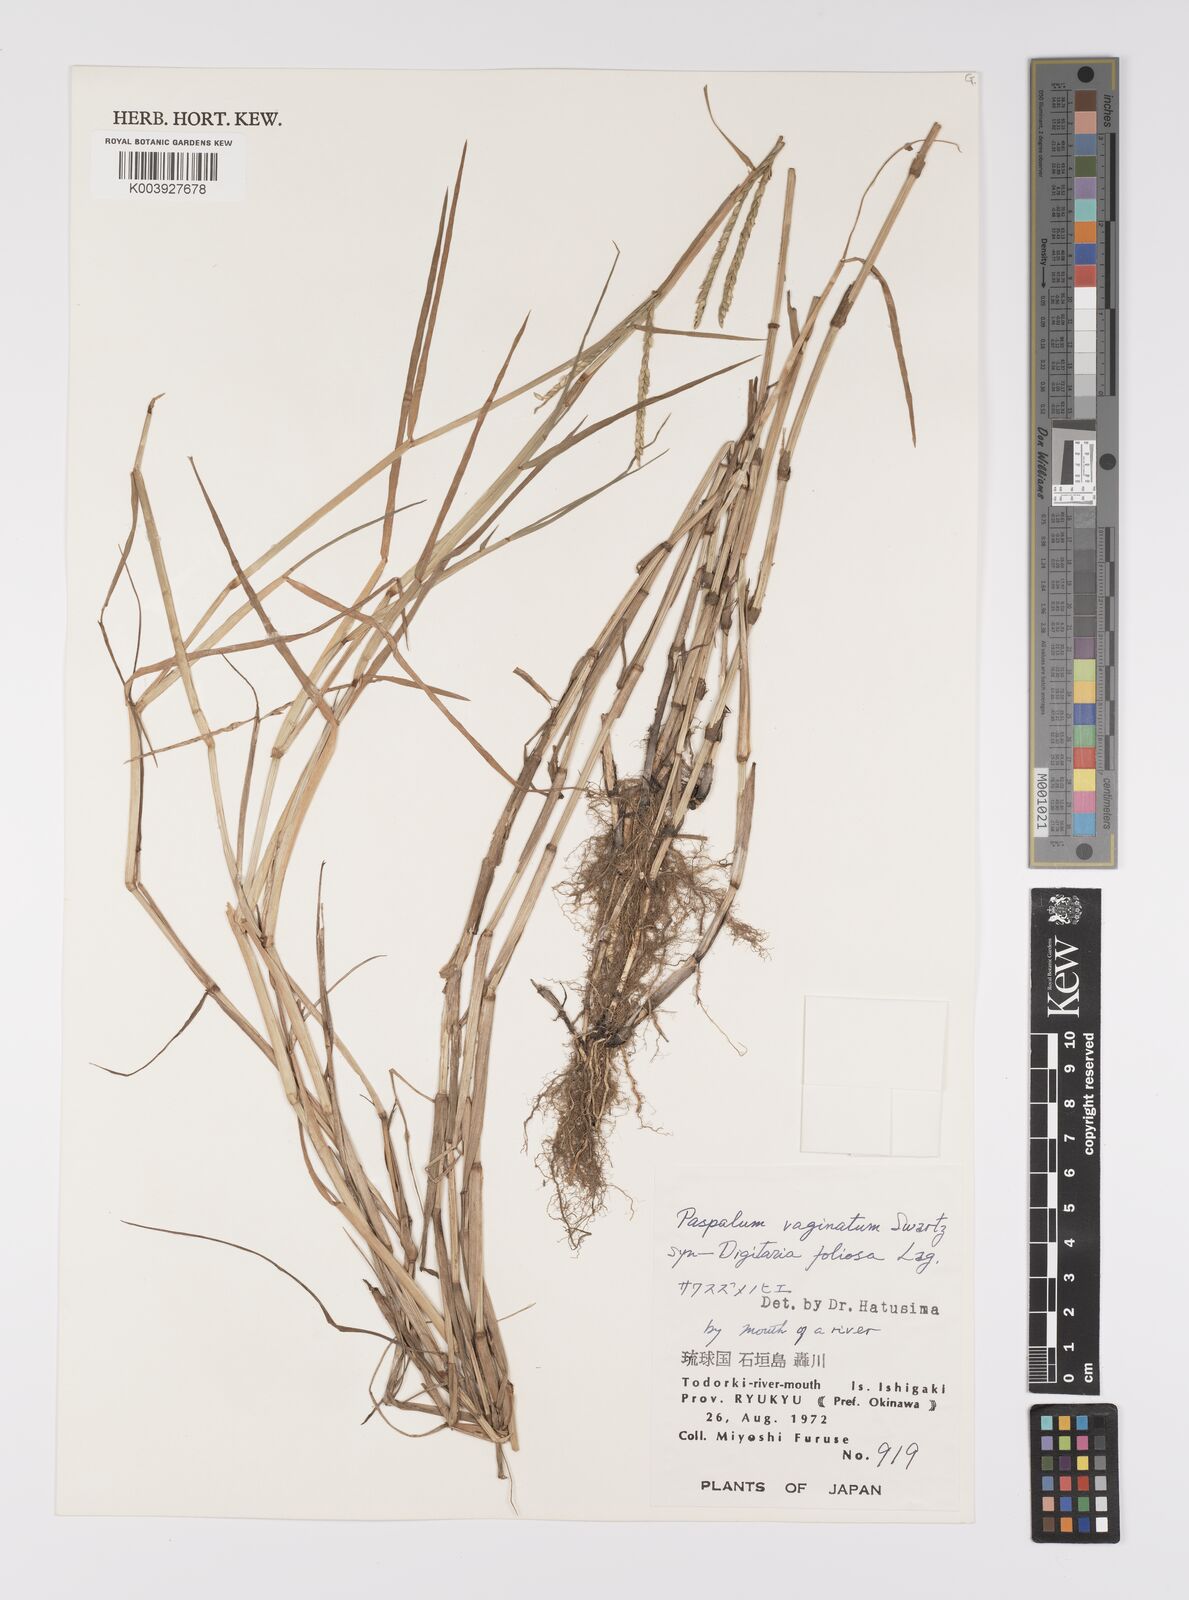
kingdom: Plantae
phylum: Tracheophyta
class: Liliopsida
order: Poales
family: Poaceae
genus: Paspalum
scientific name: Paspalum vaginatum
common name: Seashore paspalum
